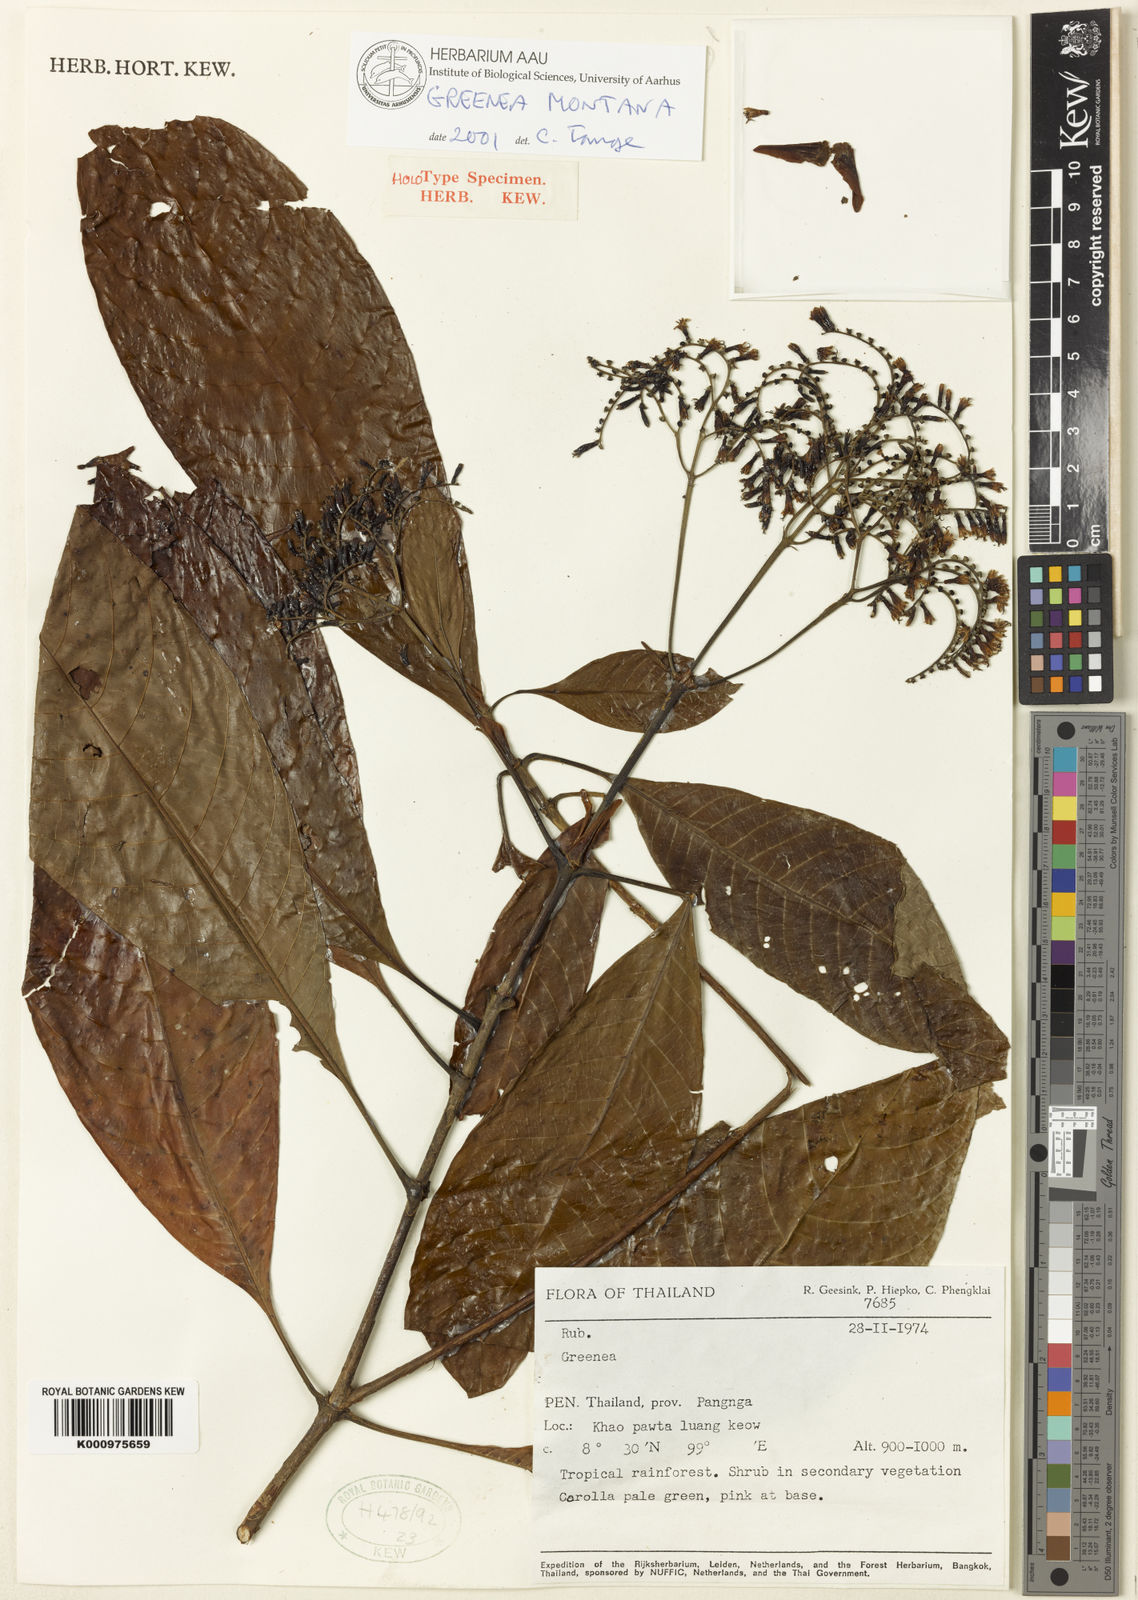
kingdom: Plantae
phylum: Tracheophyta
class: Magnoliopsida
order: Gentianales
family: Rubiaceae
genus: Greenea
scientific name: Greenea montana
